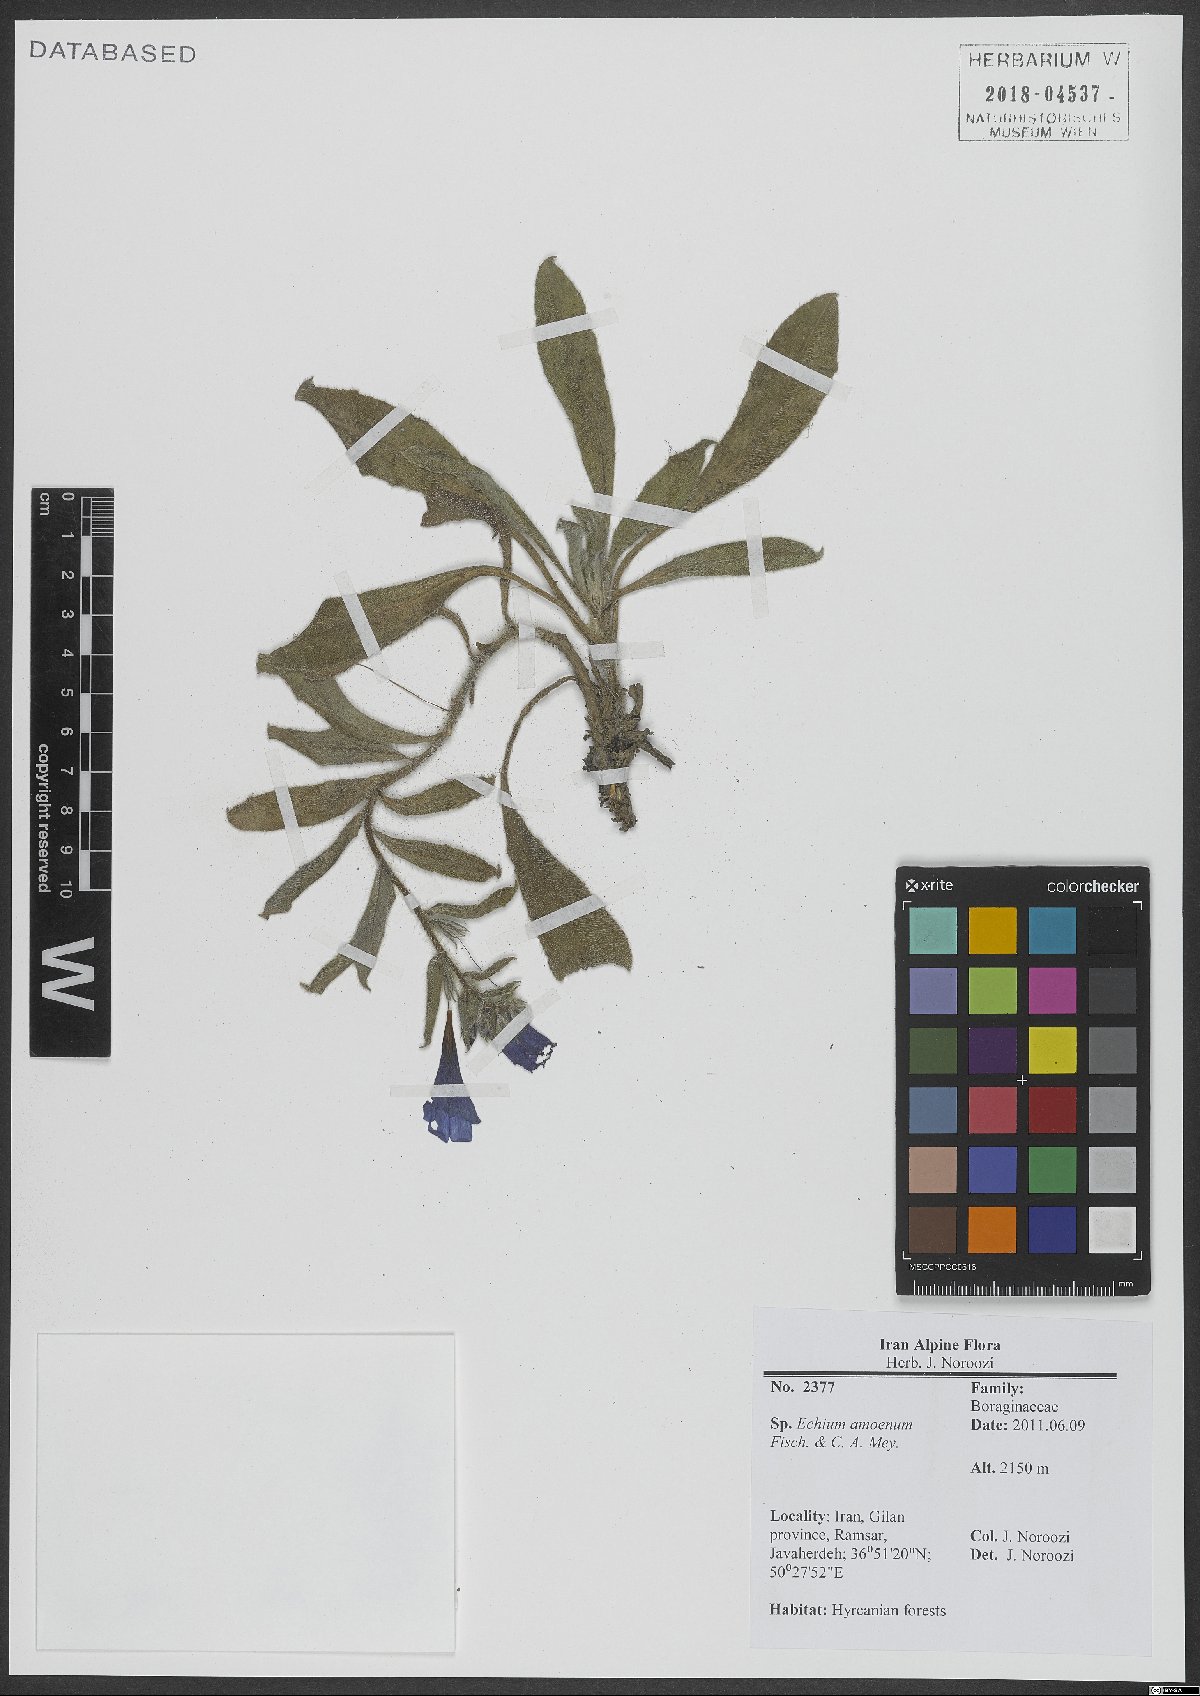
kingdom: Plantae
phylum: Tracheophyta
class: Magnoliopsida
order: Boraginales
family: Boraginaceae
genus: Echium
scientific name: Echium amoenum
